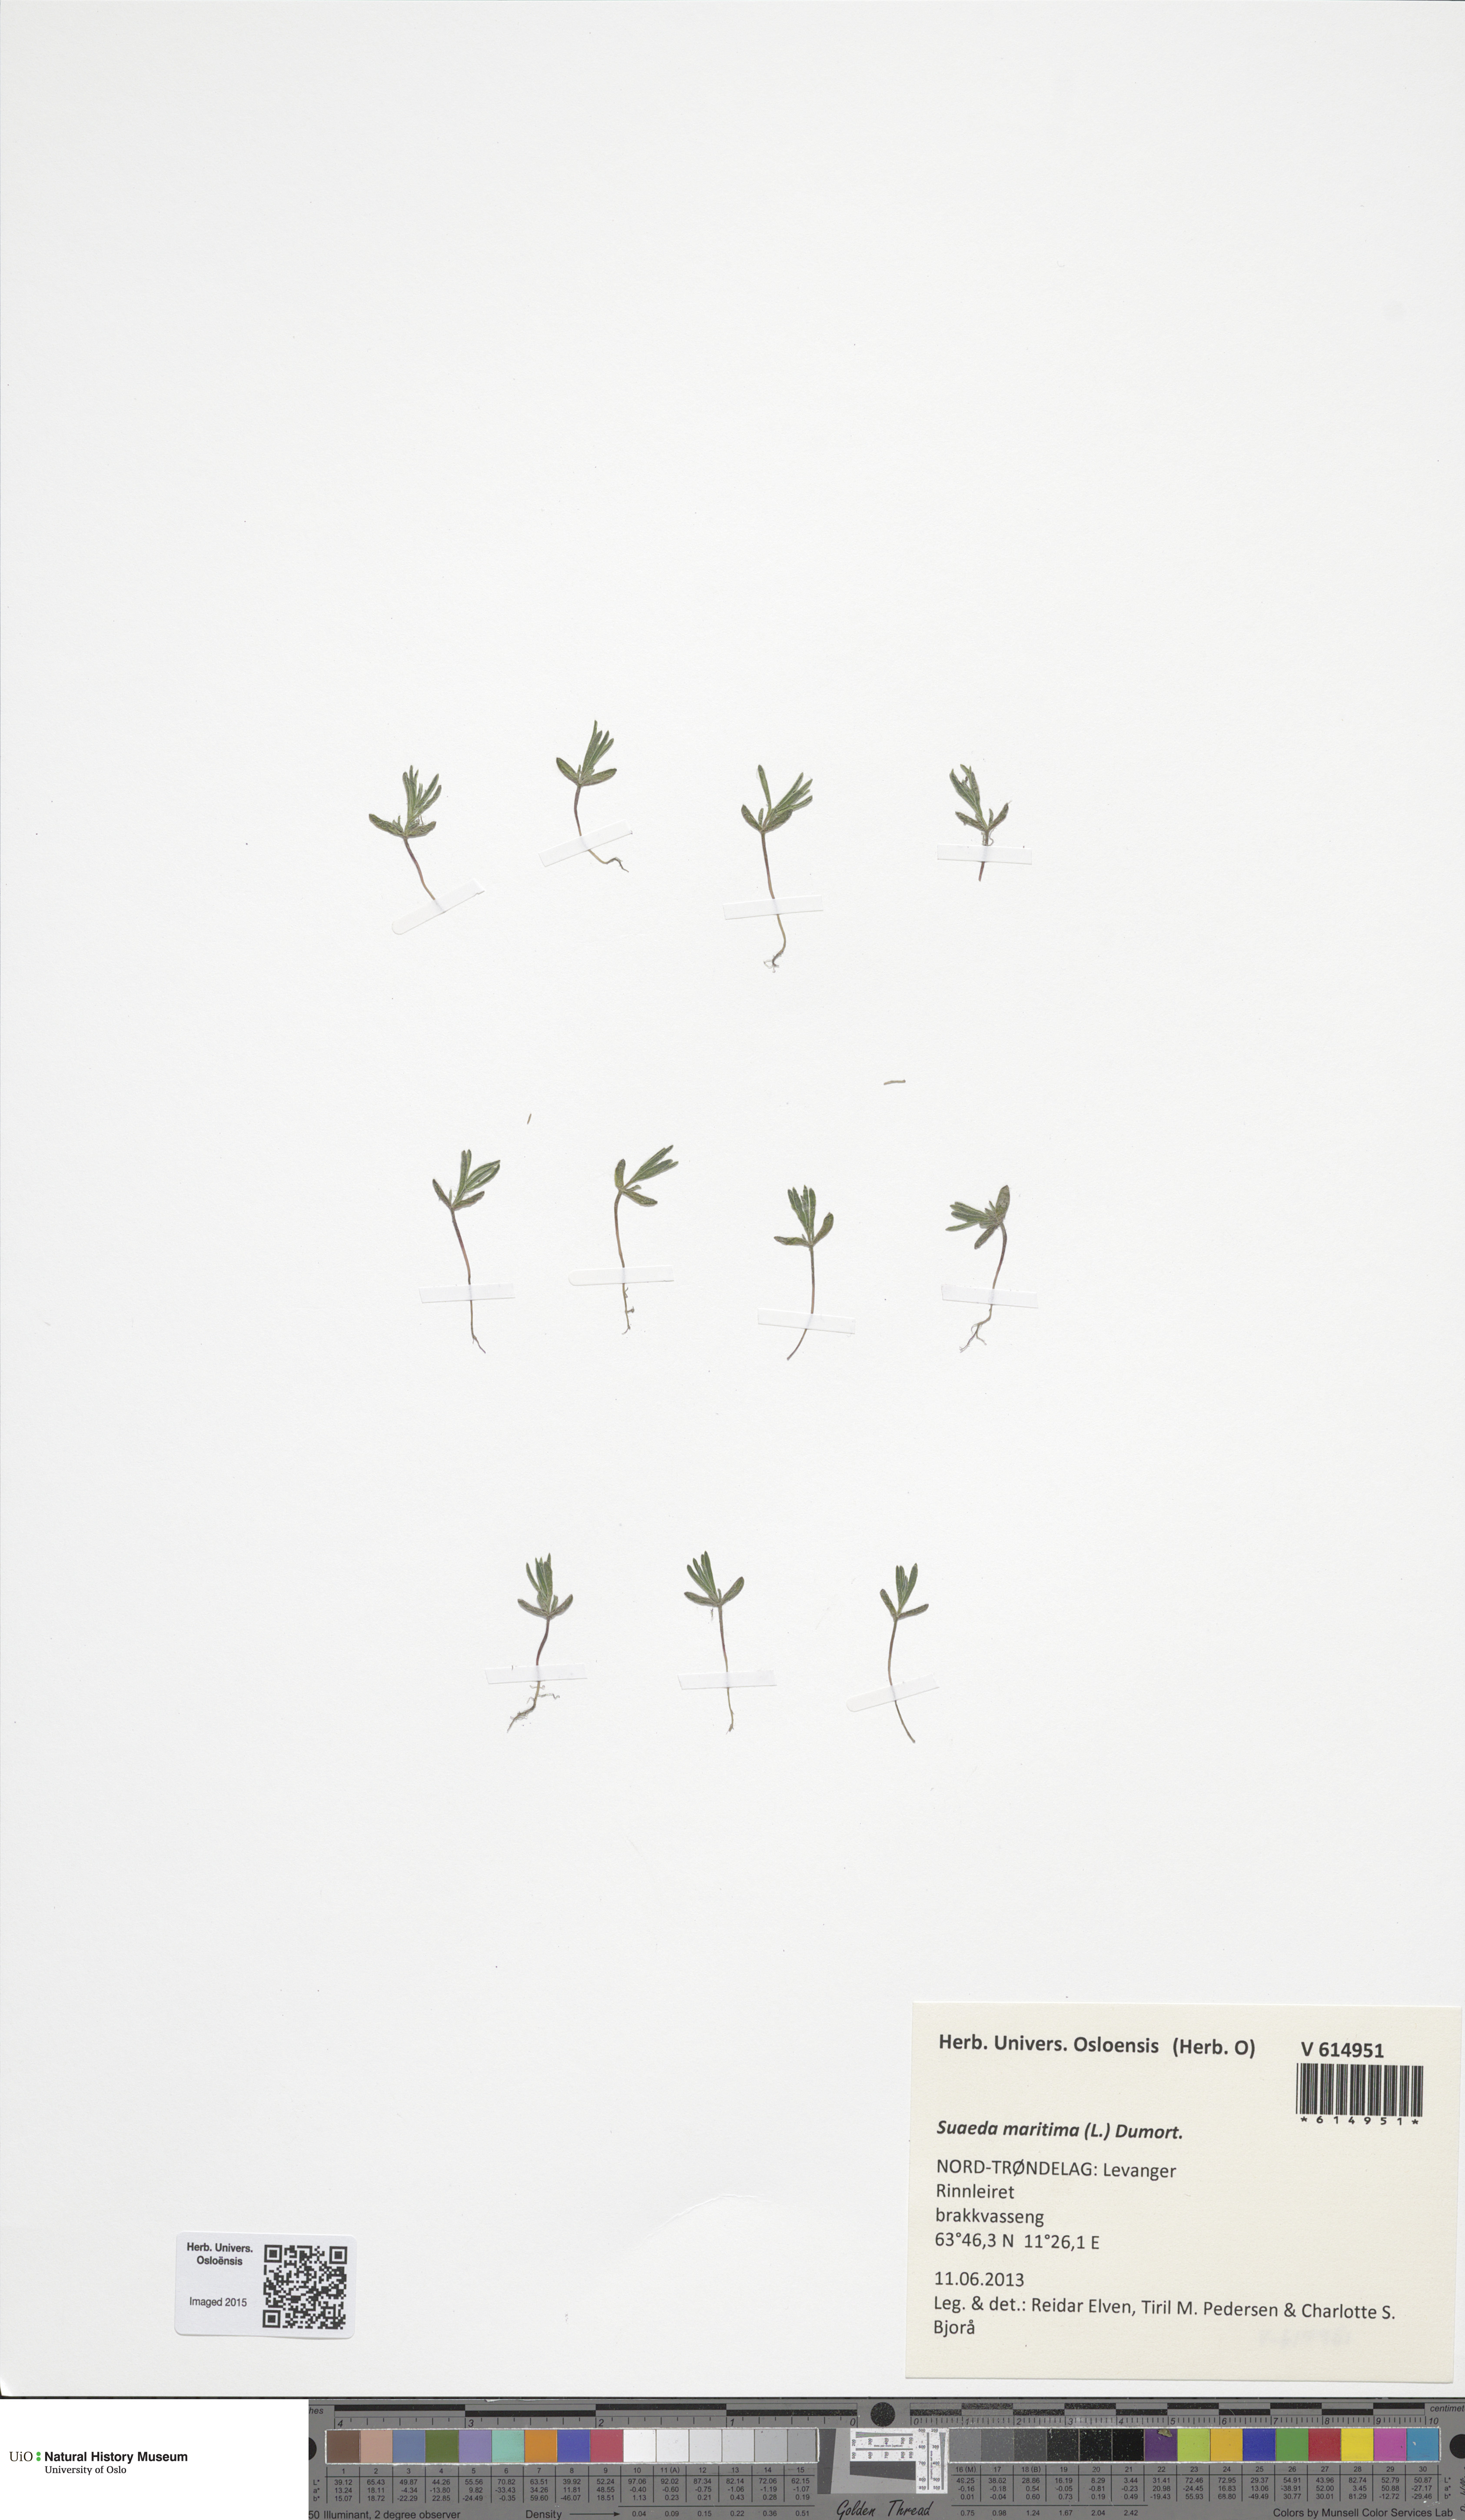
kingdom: Plantae
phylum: Tracheophyta
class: Magnoliopsida
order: Caryophyllales
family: Amaranthaceae
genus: Suaeda
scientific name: Suaeda maritima
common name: Annual sea-blite
